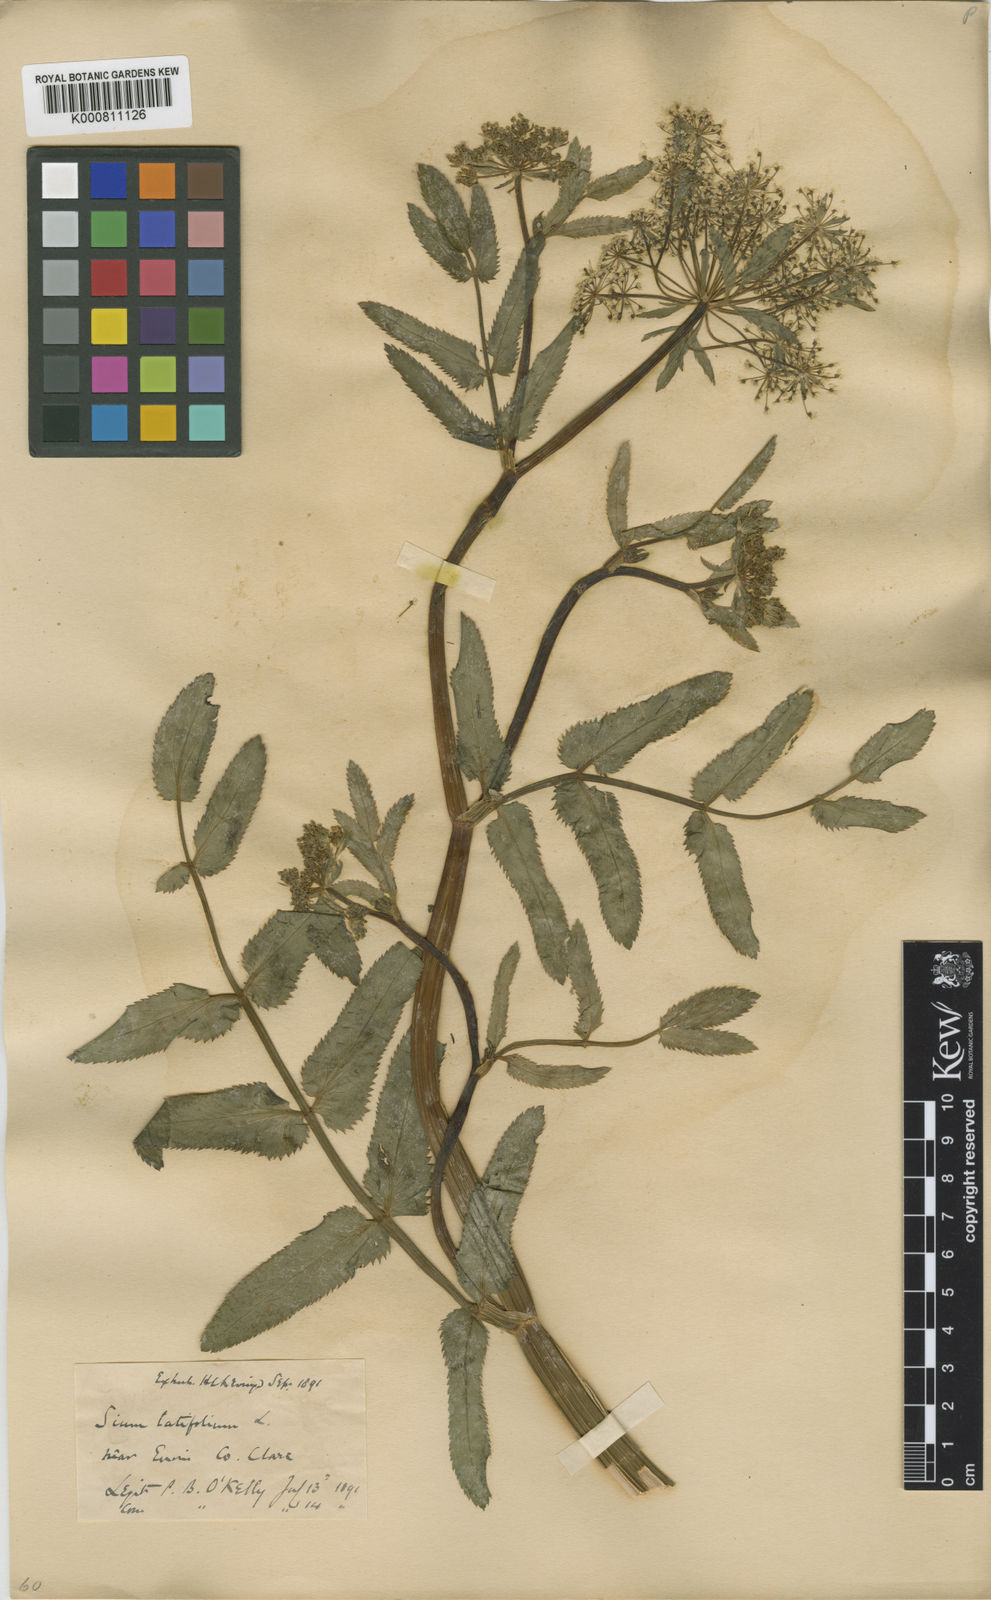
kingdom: Plantae
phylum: Tracheophyta
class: Magnoliopsida
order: Apiales
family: Apiaceae
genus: Sium
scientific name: Sium latifolium
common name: Greater water-parsnip
